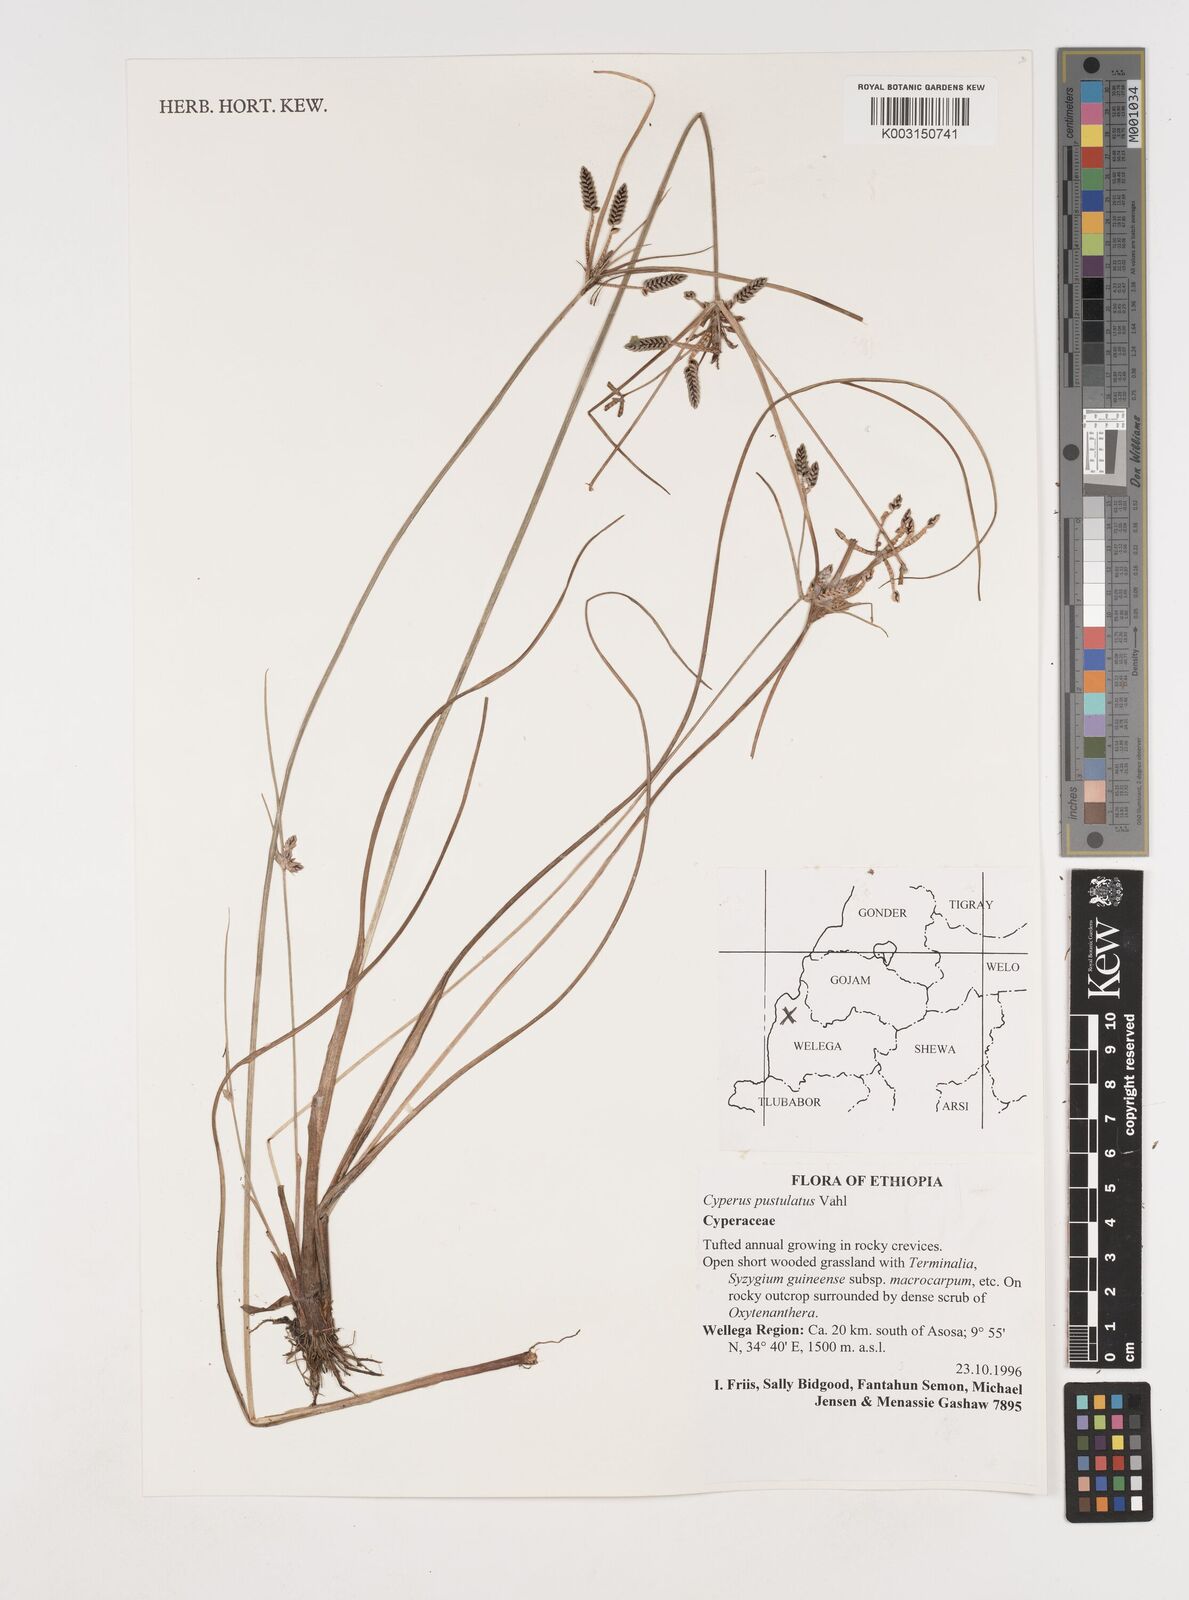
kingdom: Plantae
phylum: Tracheophyta
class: Liliopsida
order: Poales
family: Cyperaceae
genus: Cyperus
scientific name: Cyperus pustulatus
